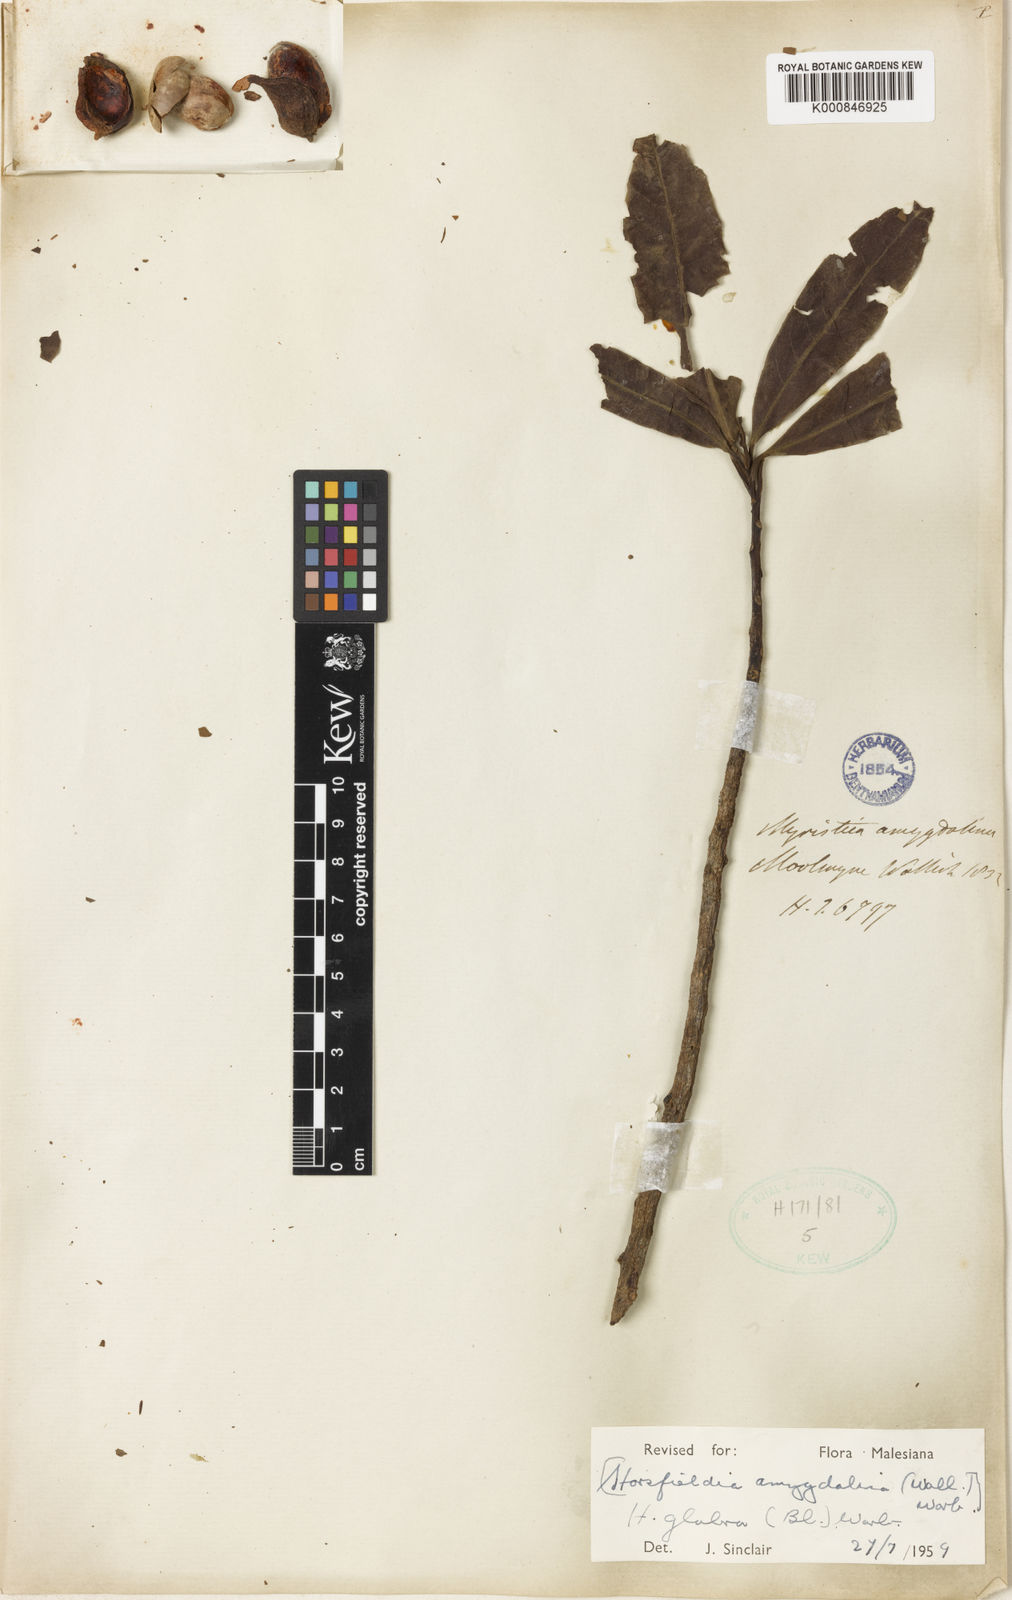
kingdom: Plantae
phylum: Tracheophyta
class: Magnoliopsida
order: Magnoliales
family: Myristicaceae
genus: Horsfieldia
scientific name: Horsfieldia amygdalina
